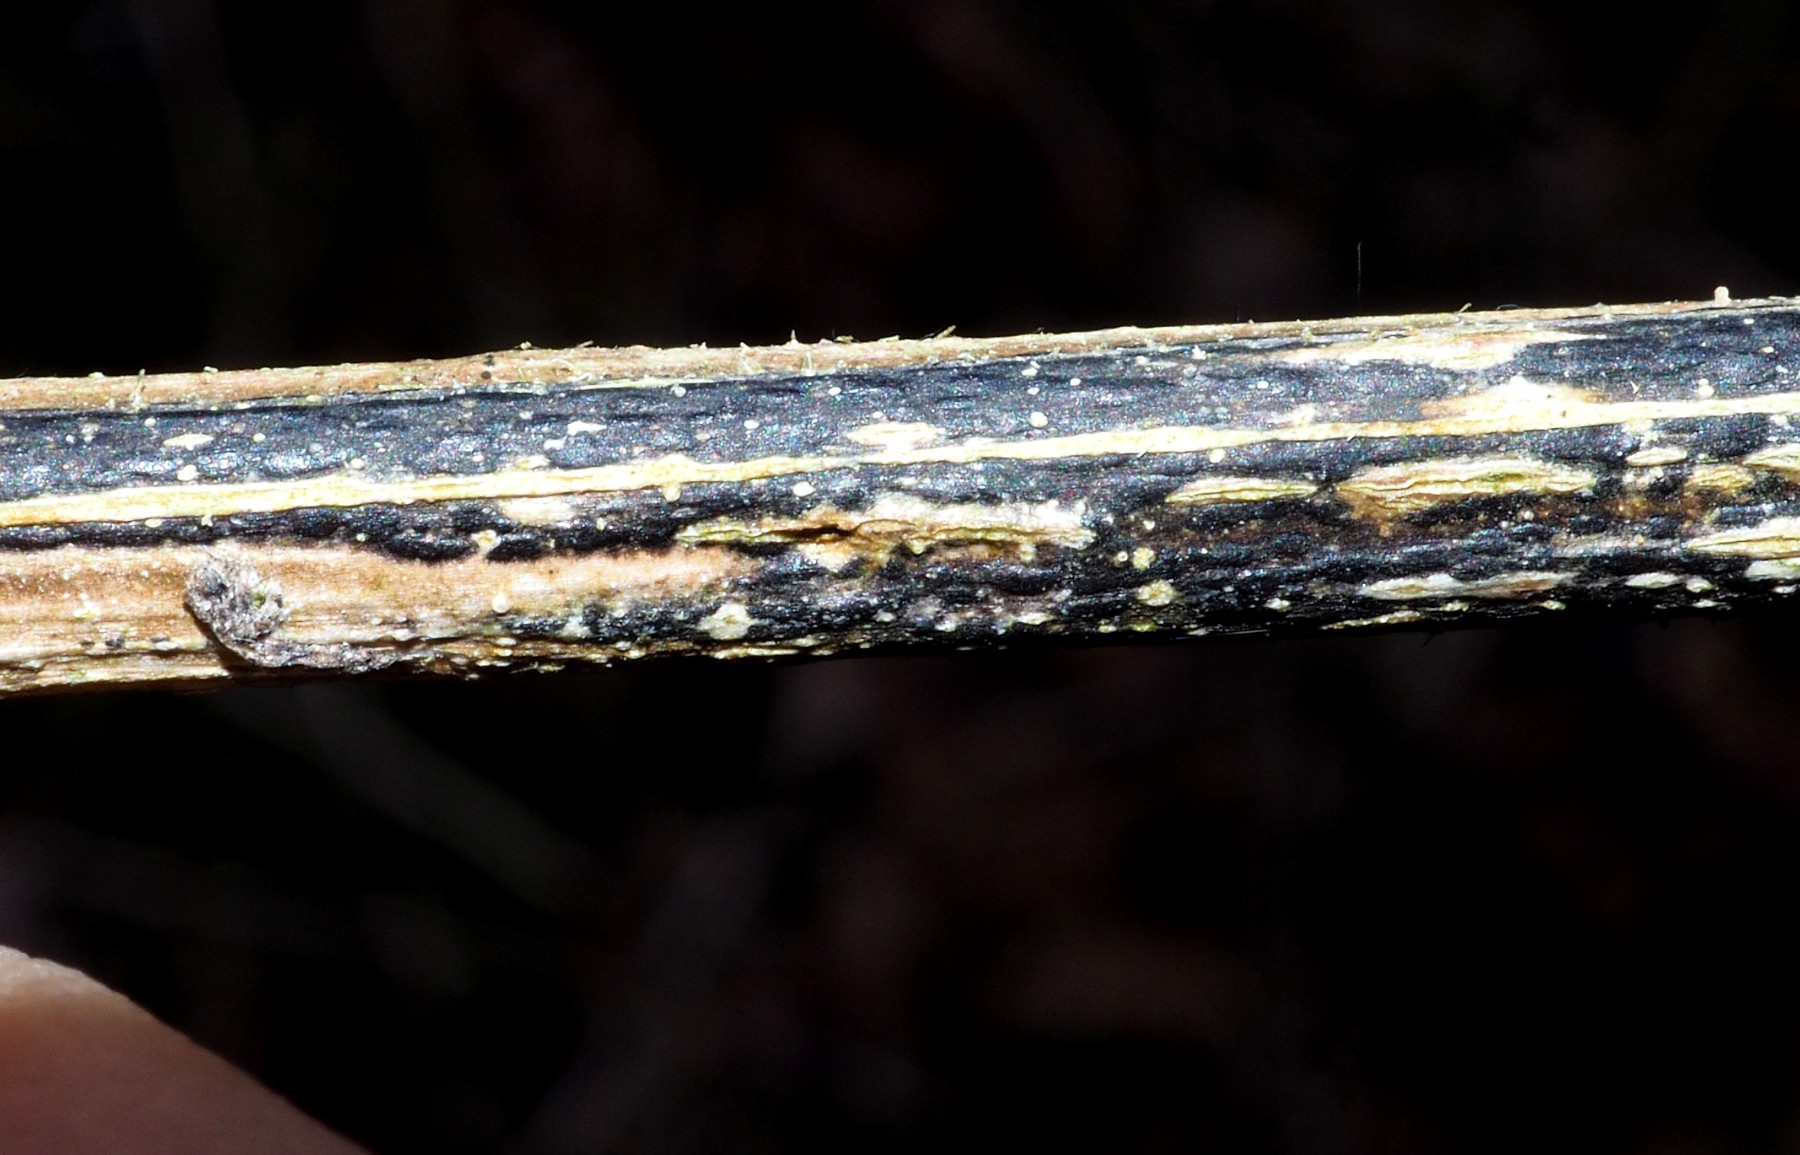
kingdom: Fungi
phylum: Ascomycota
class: Sordariomycetes
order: Diaporthales
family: Diaporthaceae
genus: Diaporthopsis
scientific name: Diaporthopsis urticae
